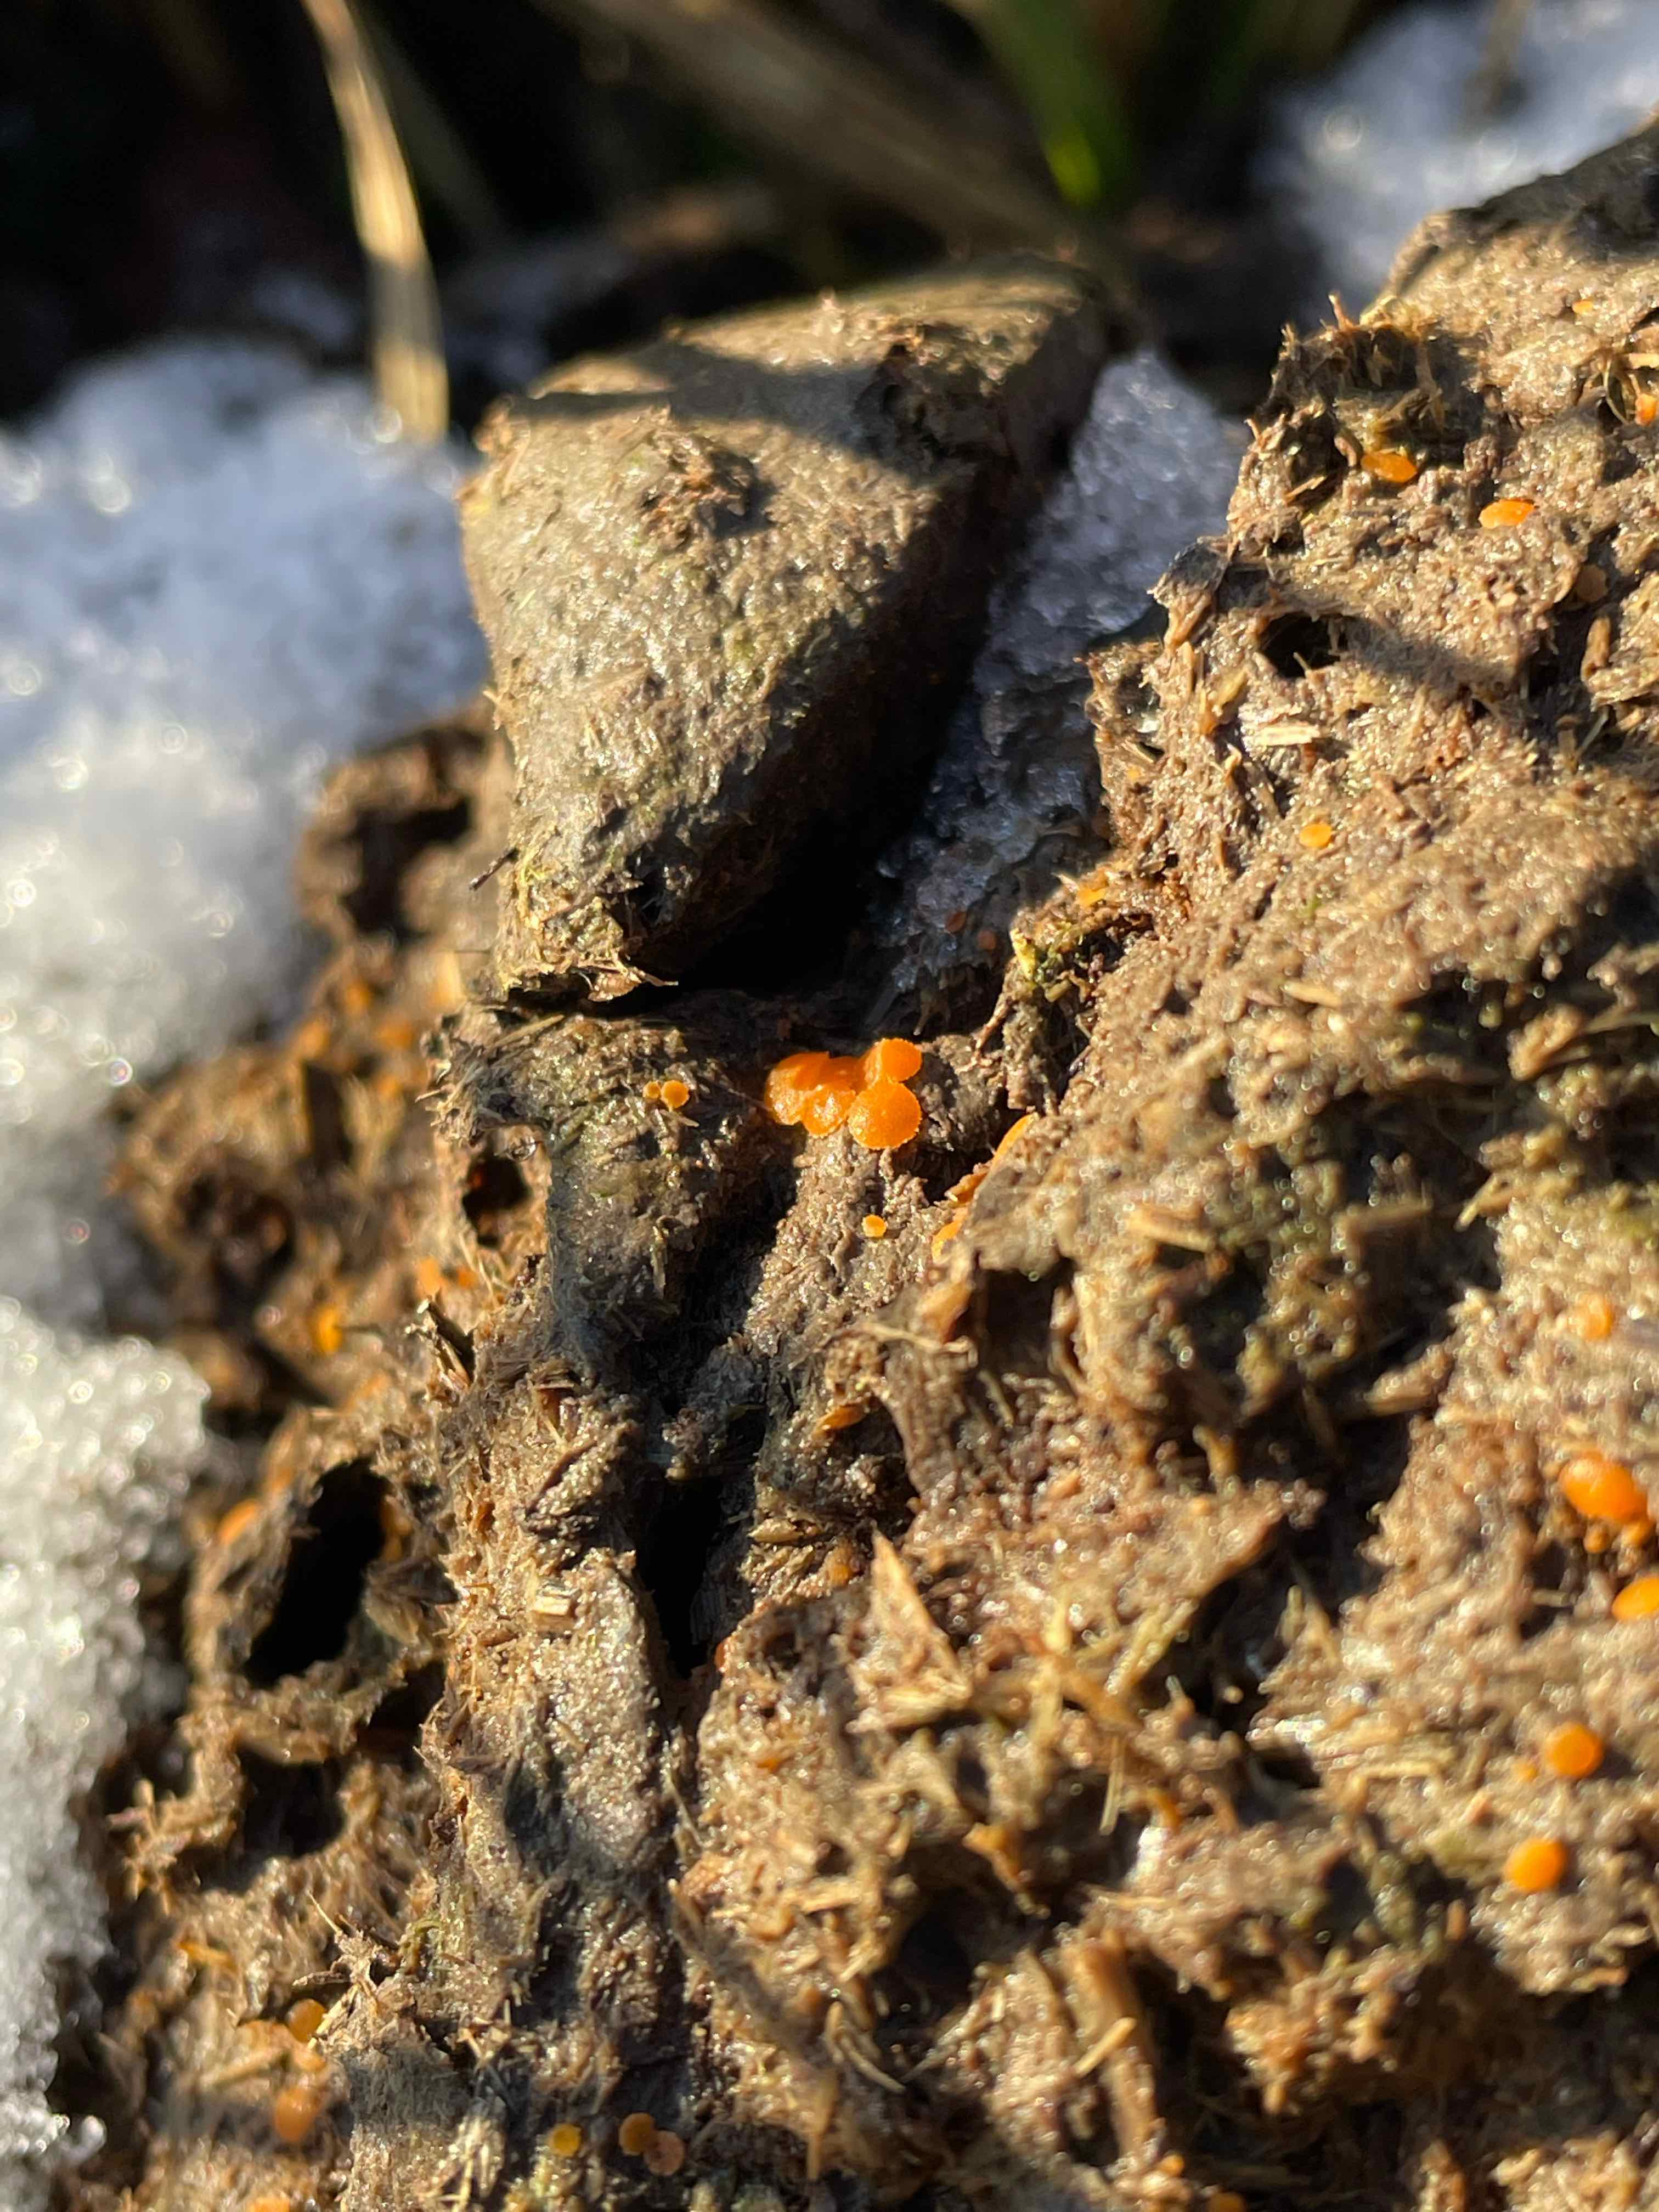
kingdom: Fungi
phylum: Ascomycota
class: Pezizomycetes
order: Pezizales
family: Pyronemataceae
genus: Cheilymenia
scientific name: Cheilymenia
